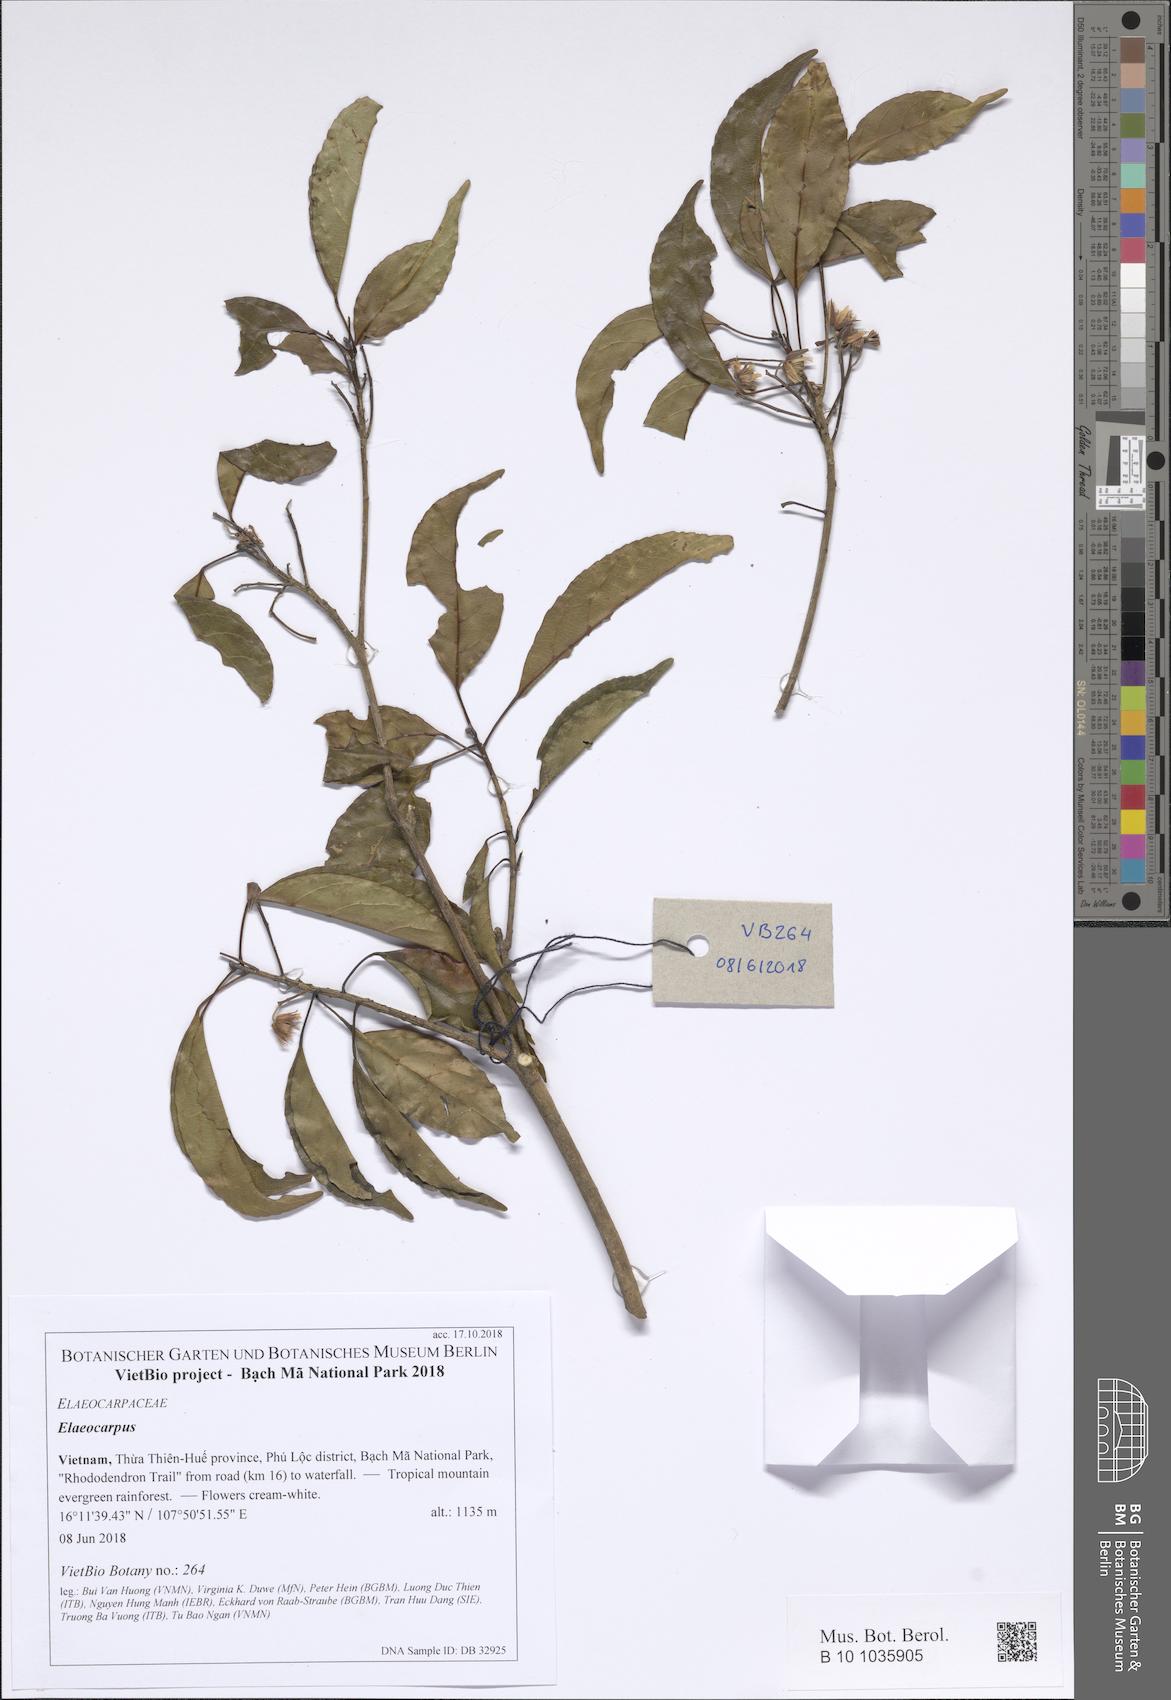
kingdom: Plantae
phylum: Tracheophyta
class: Magnoliopsida
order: Oxalidales
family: Elaeocarpaceae
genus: Elaeocarpus
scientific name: Elaeocarpus
